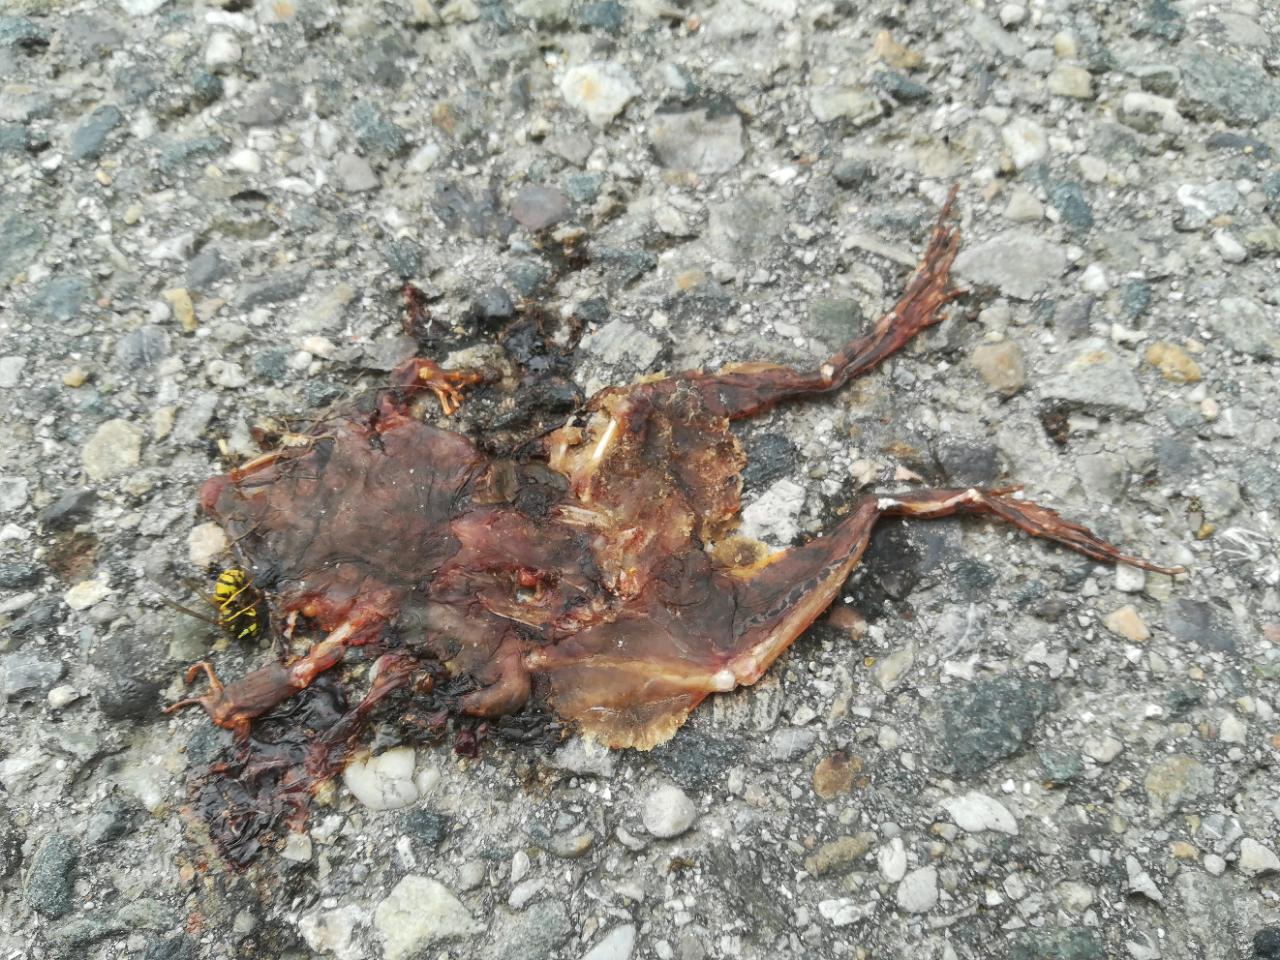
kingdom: Animalia
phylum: Chordata
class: Amphibia
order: Anura
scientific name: Anura
